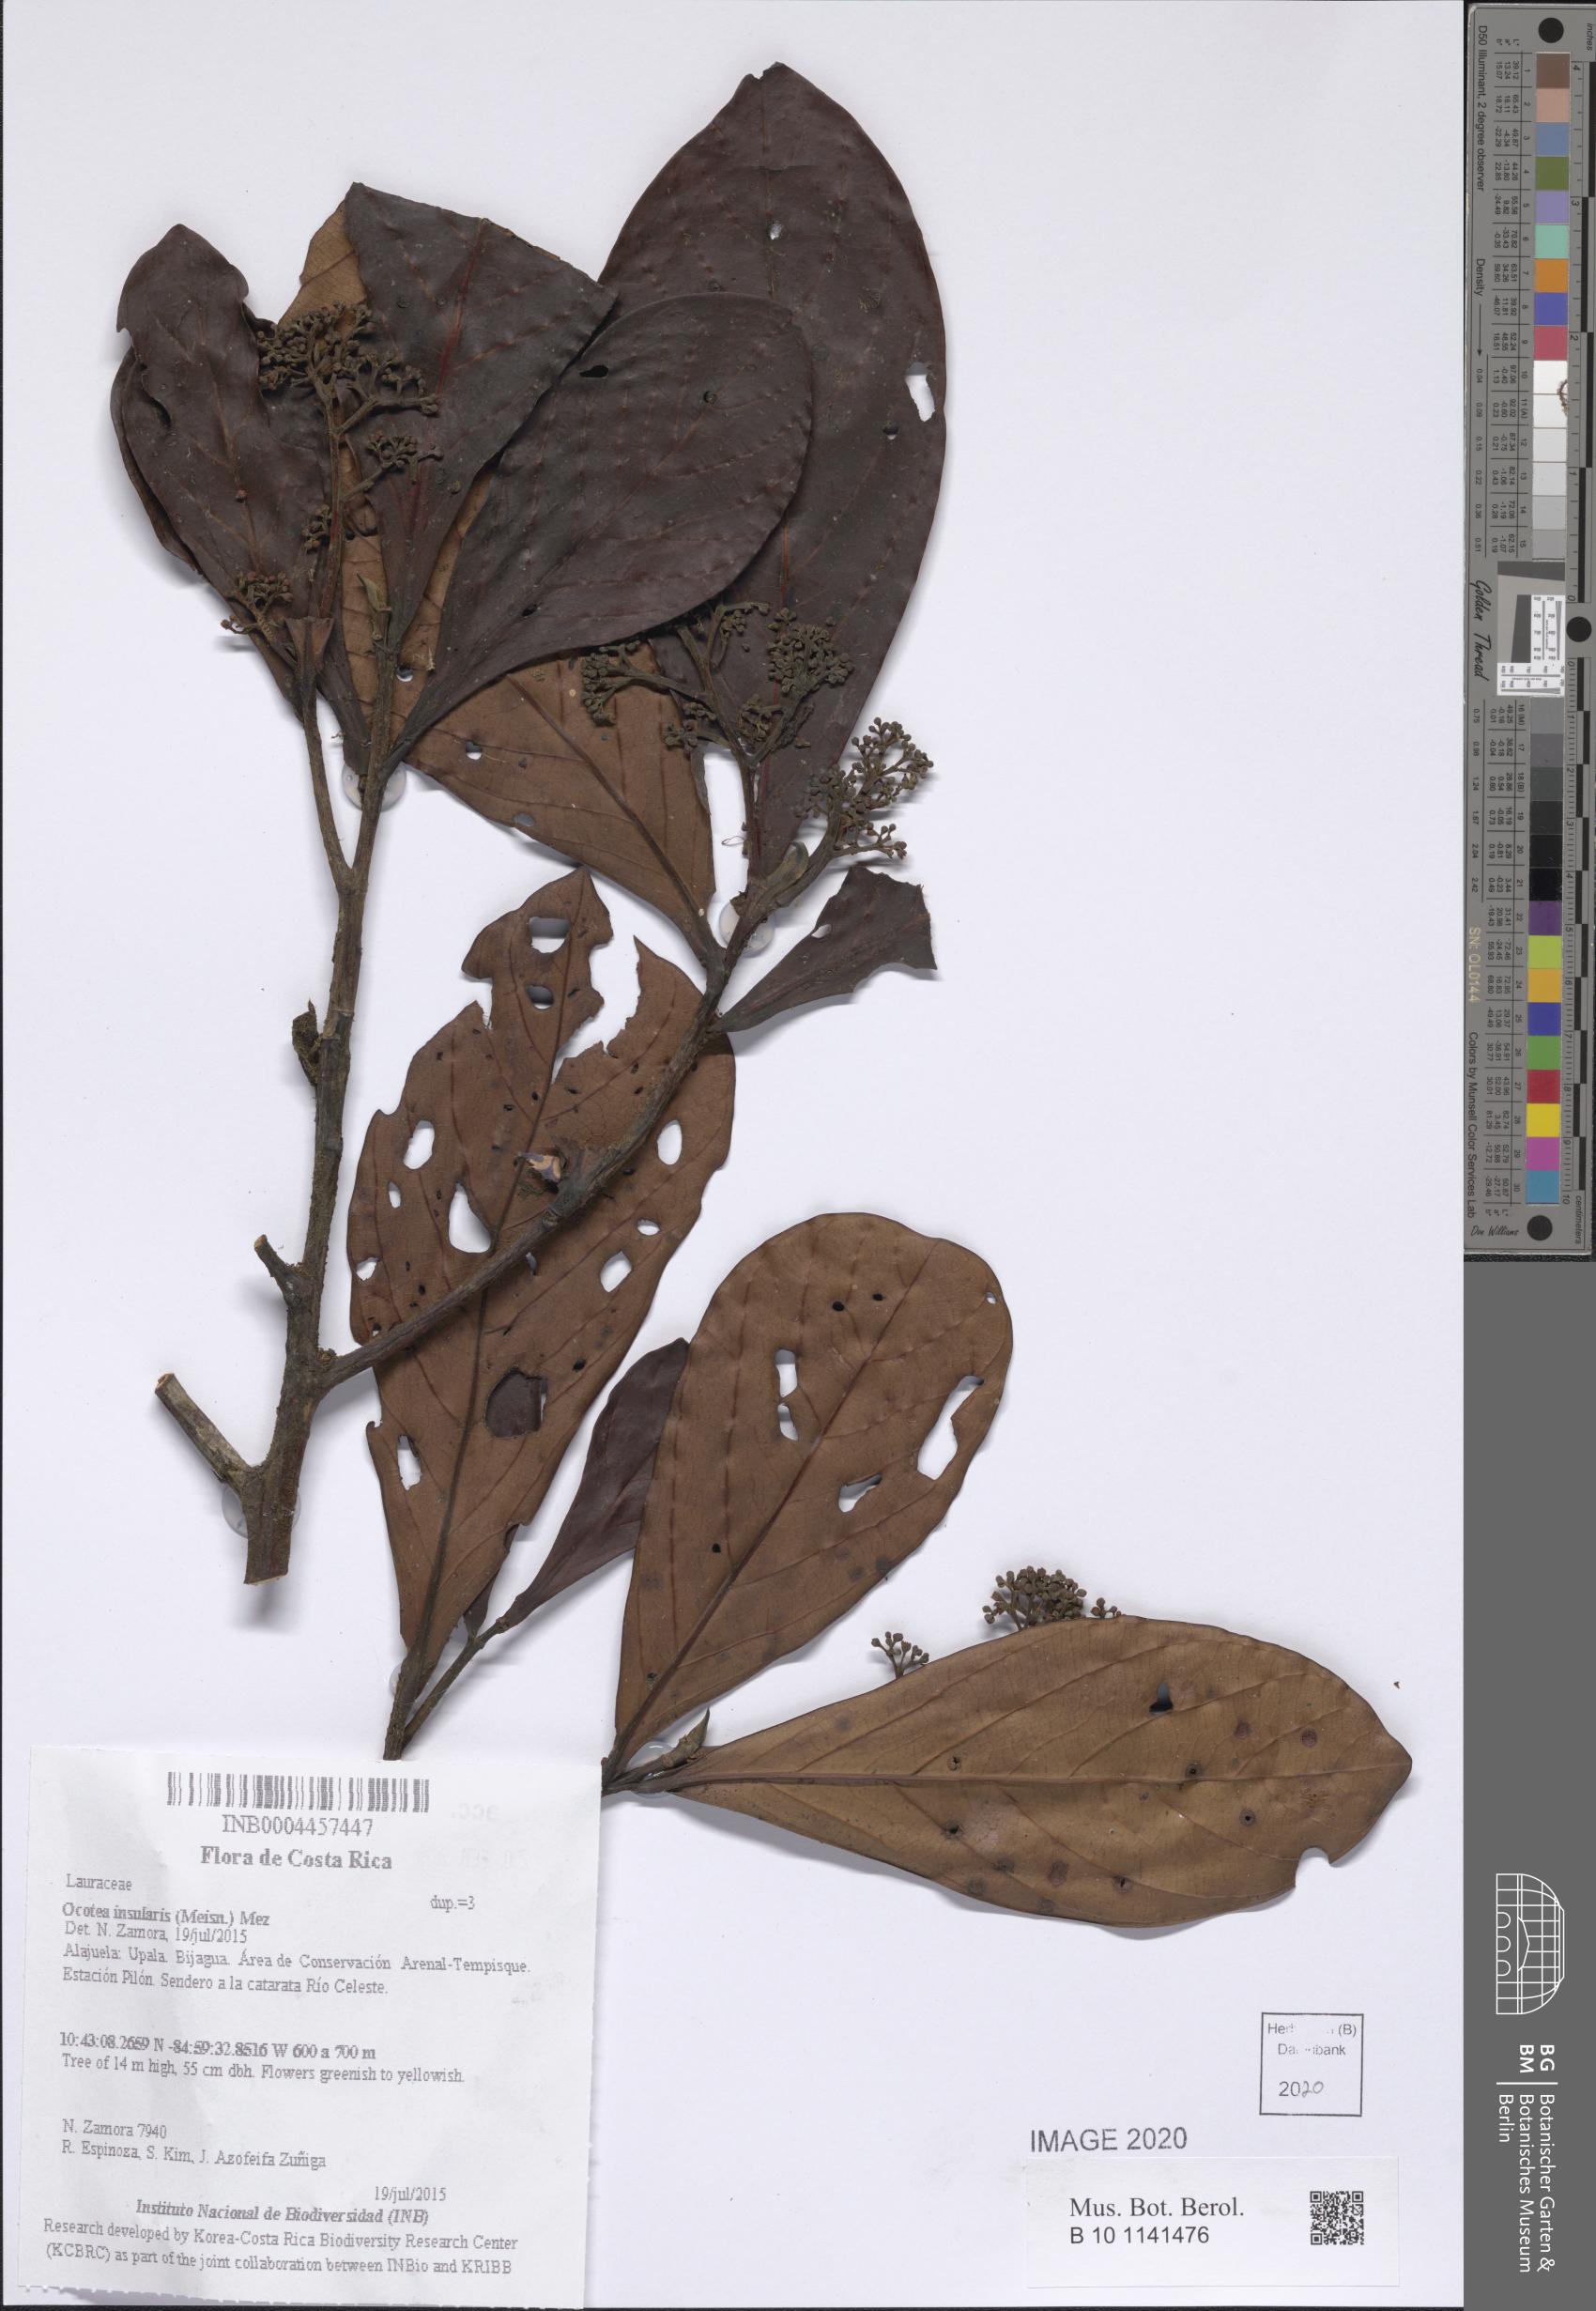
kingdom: Plantae
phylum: Tracheophyta
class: Magnoliopsida
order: Laurales
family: Lauraceae
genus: Ocotea
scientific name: Ocotea insularis
